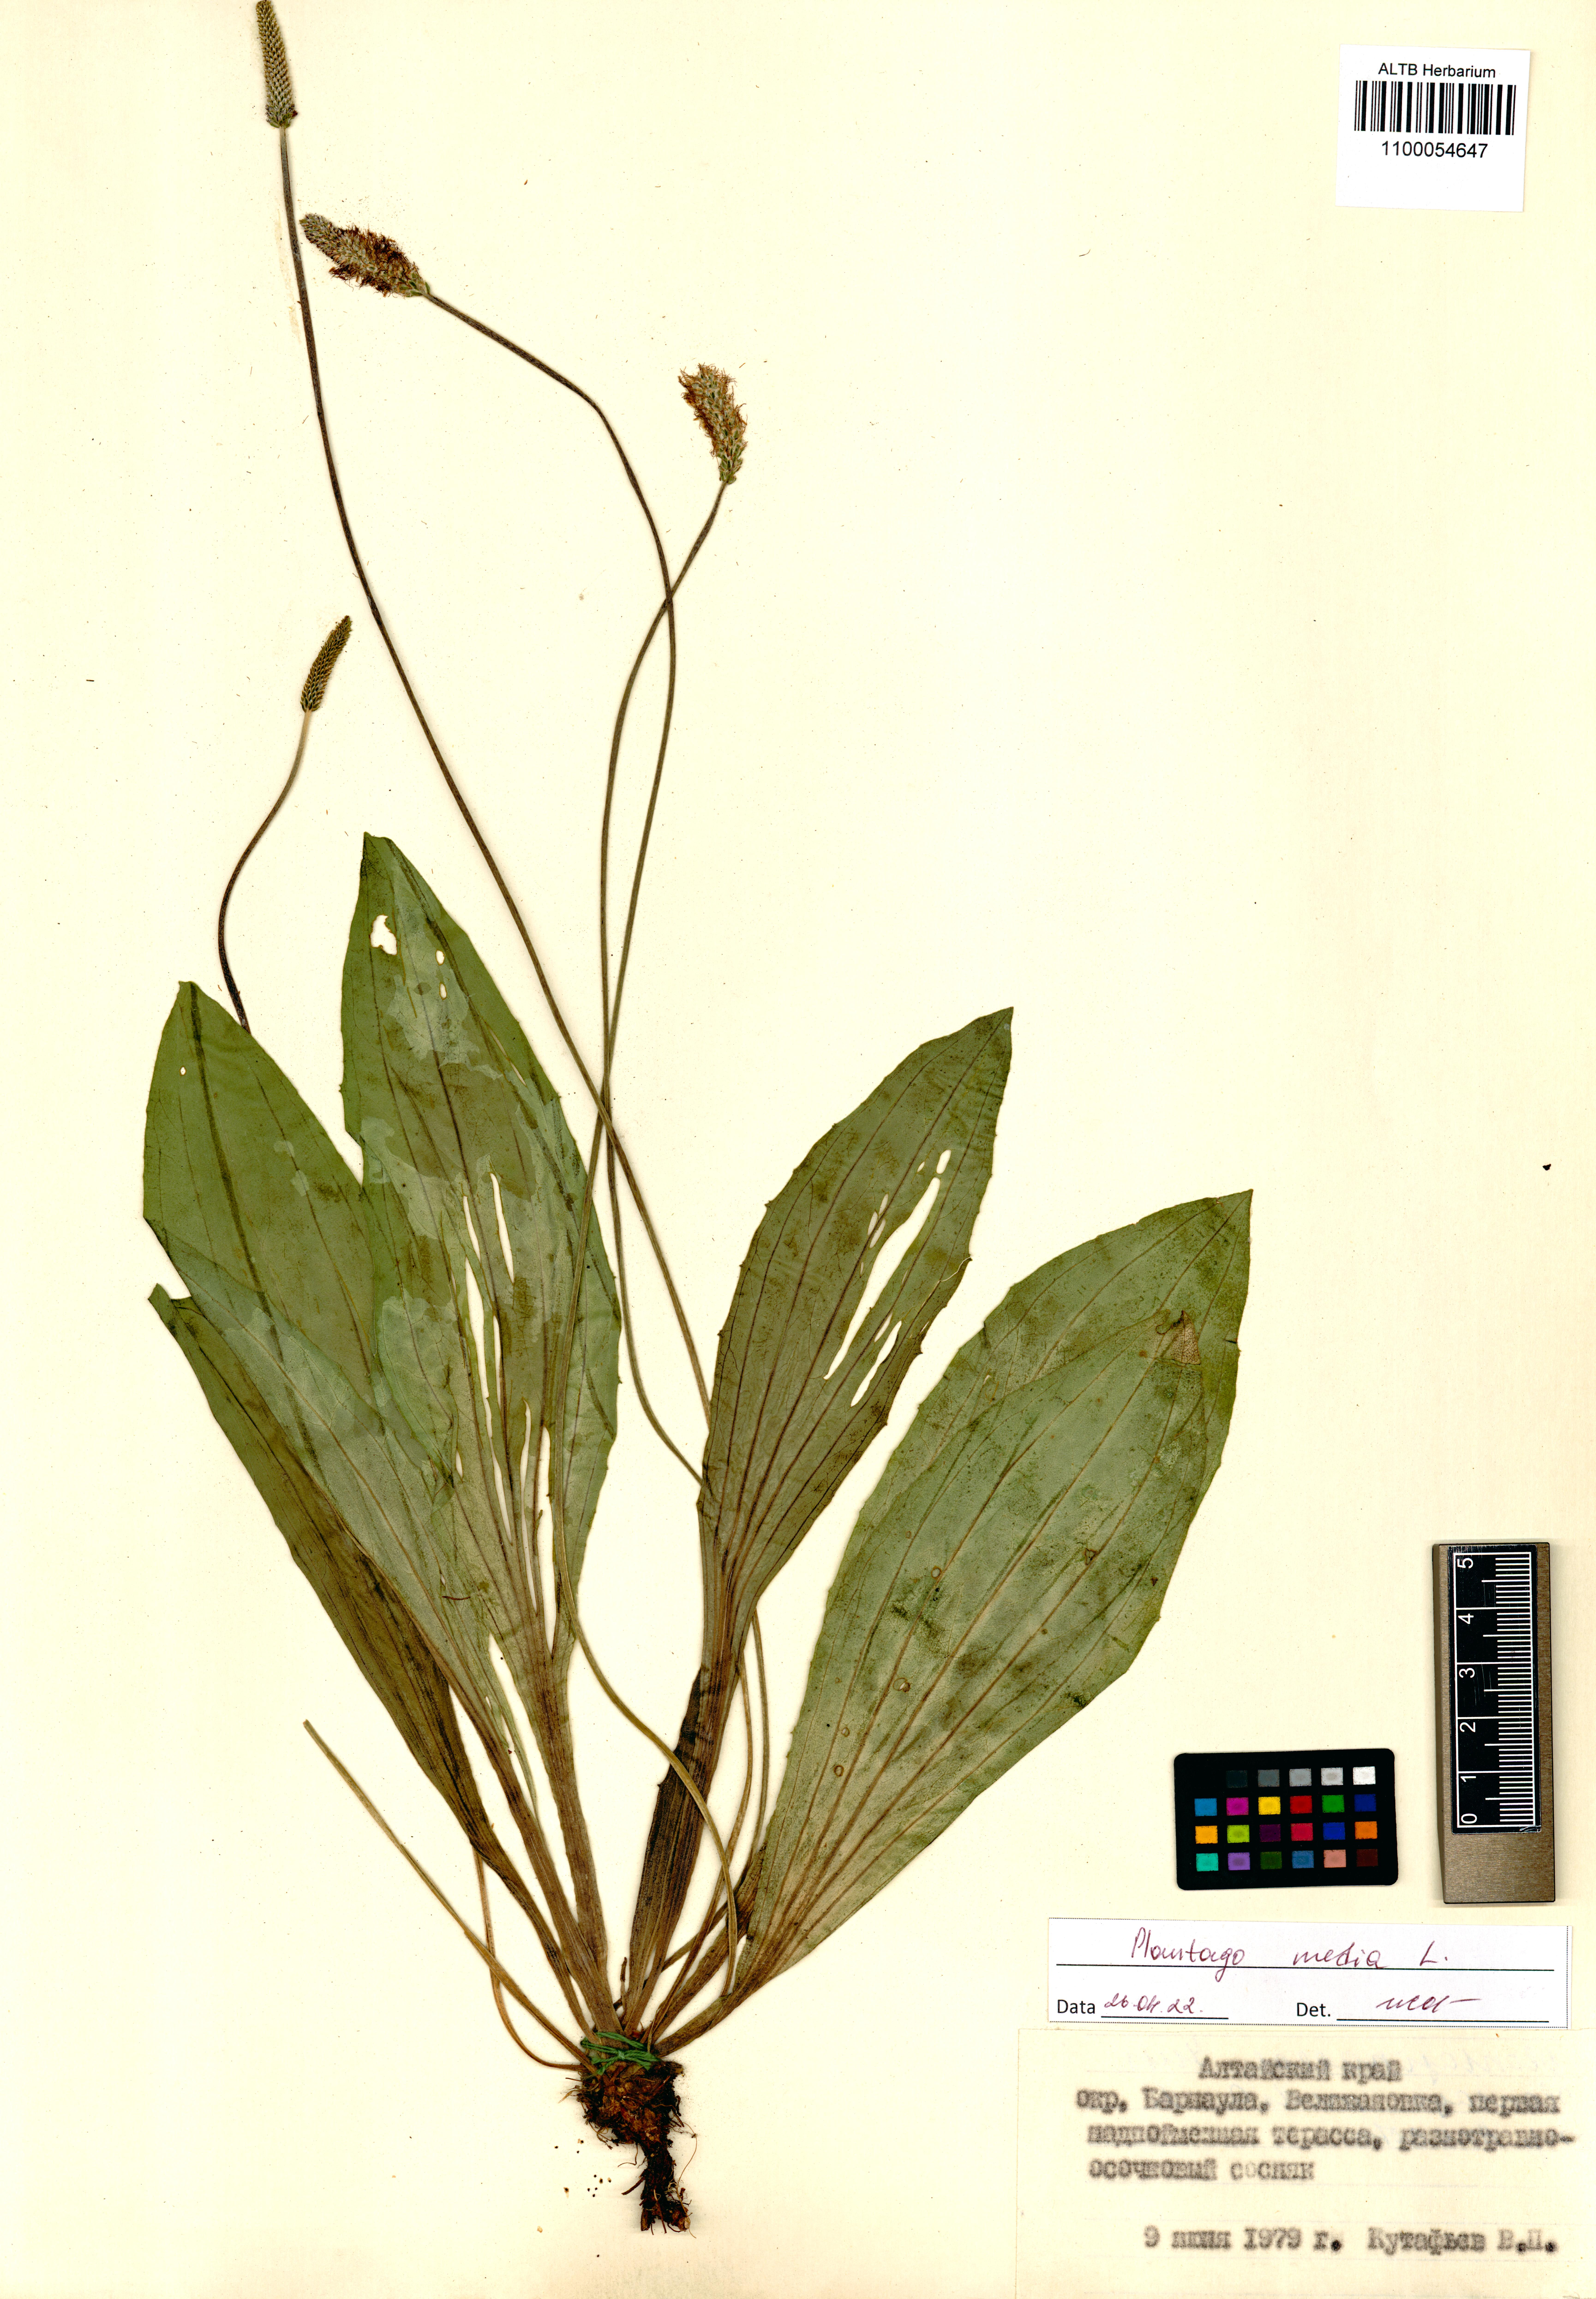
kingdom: Plantae
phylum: Tracheophyta
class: Magnoliopsida
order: Lamiales
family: Plantaginaceae
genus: Plantago
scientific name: Plantago media
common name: Hoary plantain
